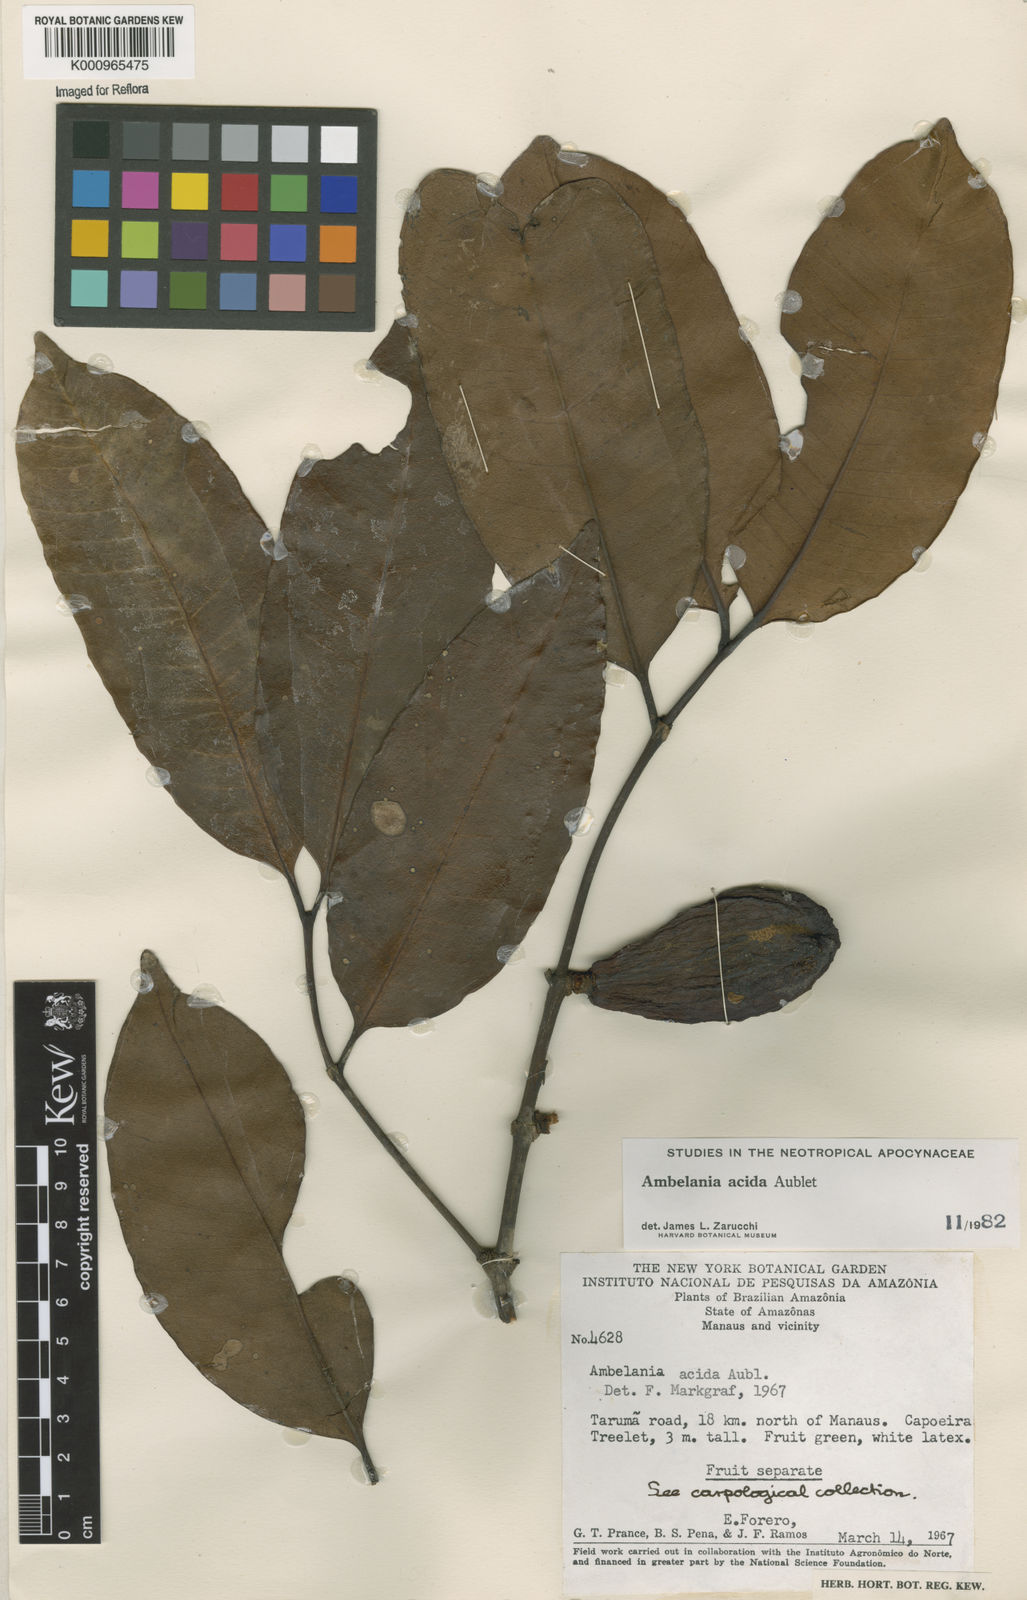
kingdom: Plantae
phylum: Tracheophyta
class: Magnoliopsida
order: Gentianales
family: Apocynaceae
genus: Ambelania
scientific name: Ambelania acida
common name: Bagasse
